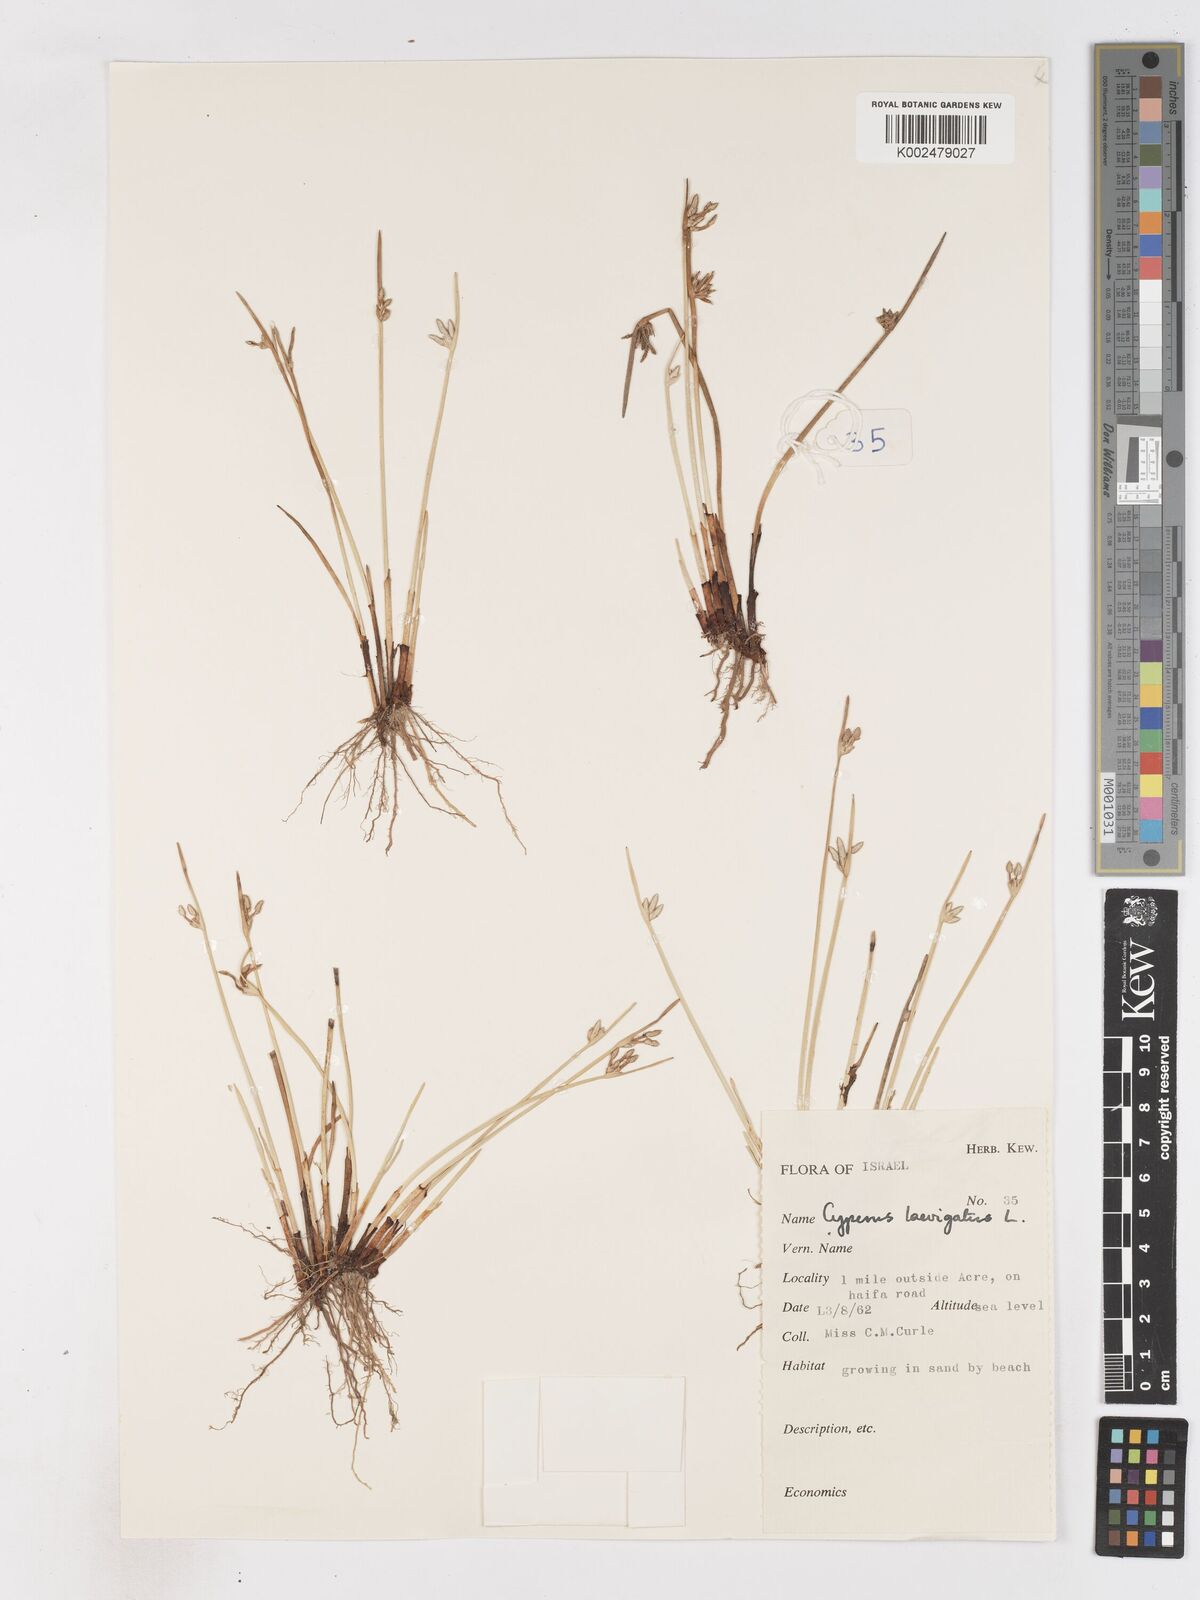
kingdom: Plantae
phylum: Tracheophyta
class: Liliopsida
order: Poales
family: Cyperaceae
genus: Cyperus
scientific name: Cyperus laevigatus
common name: Smooth flat sedge
